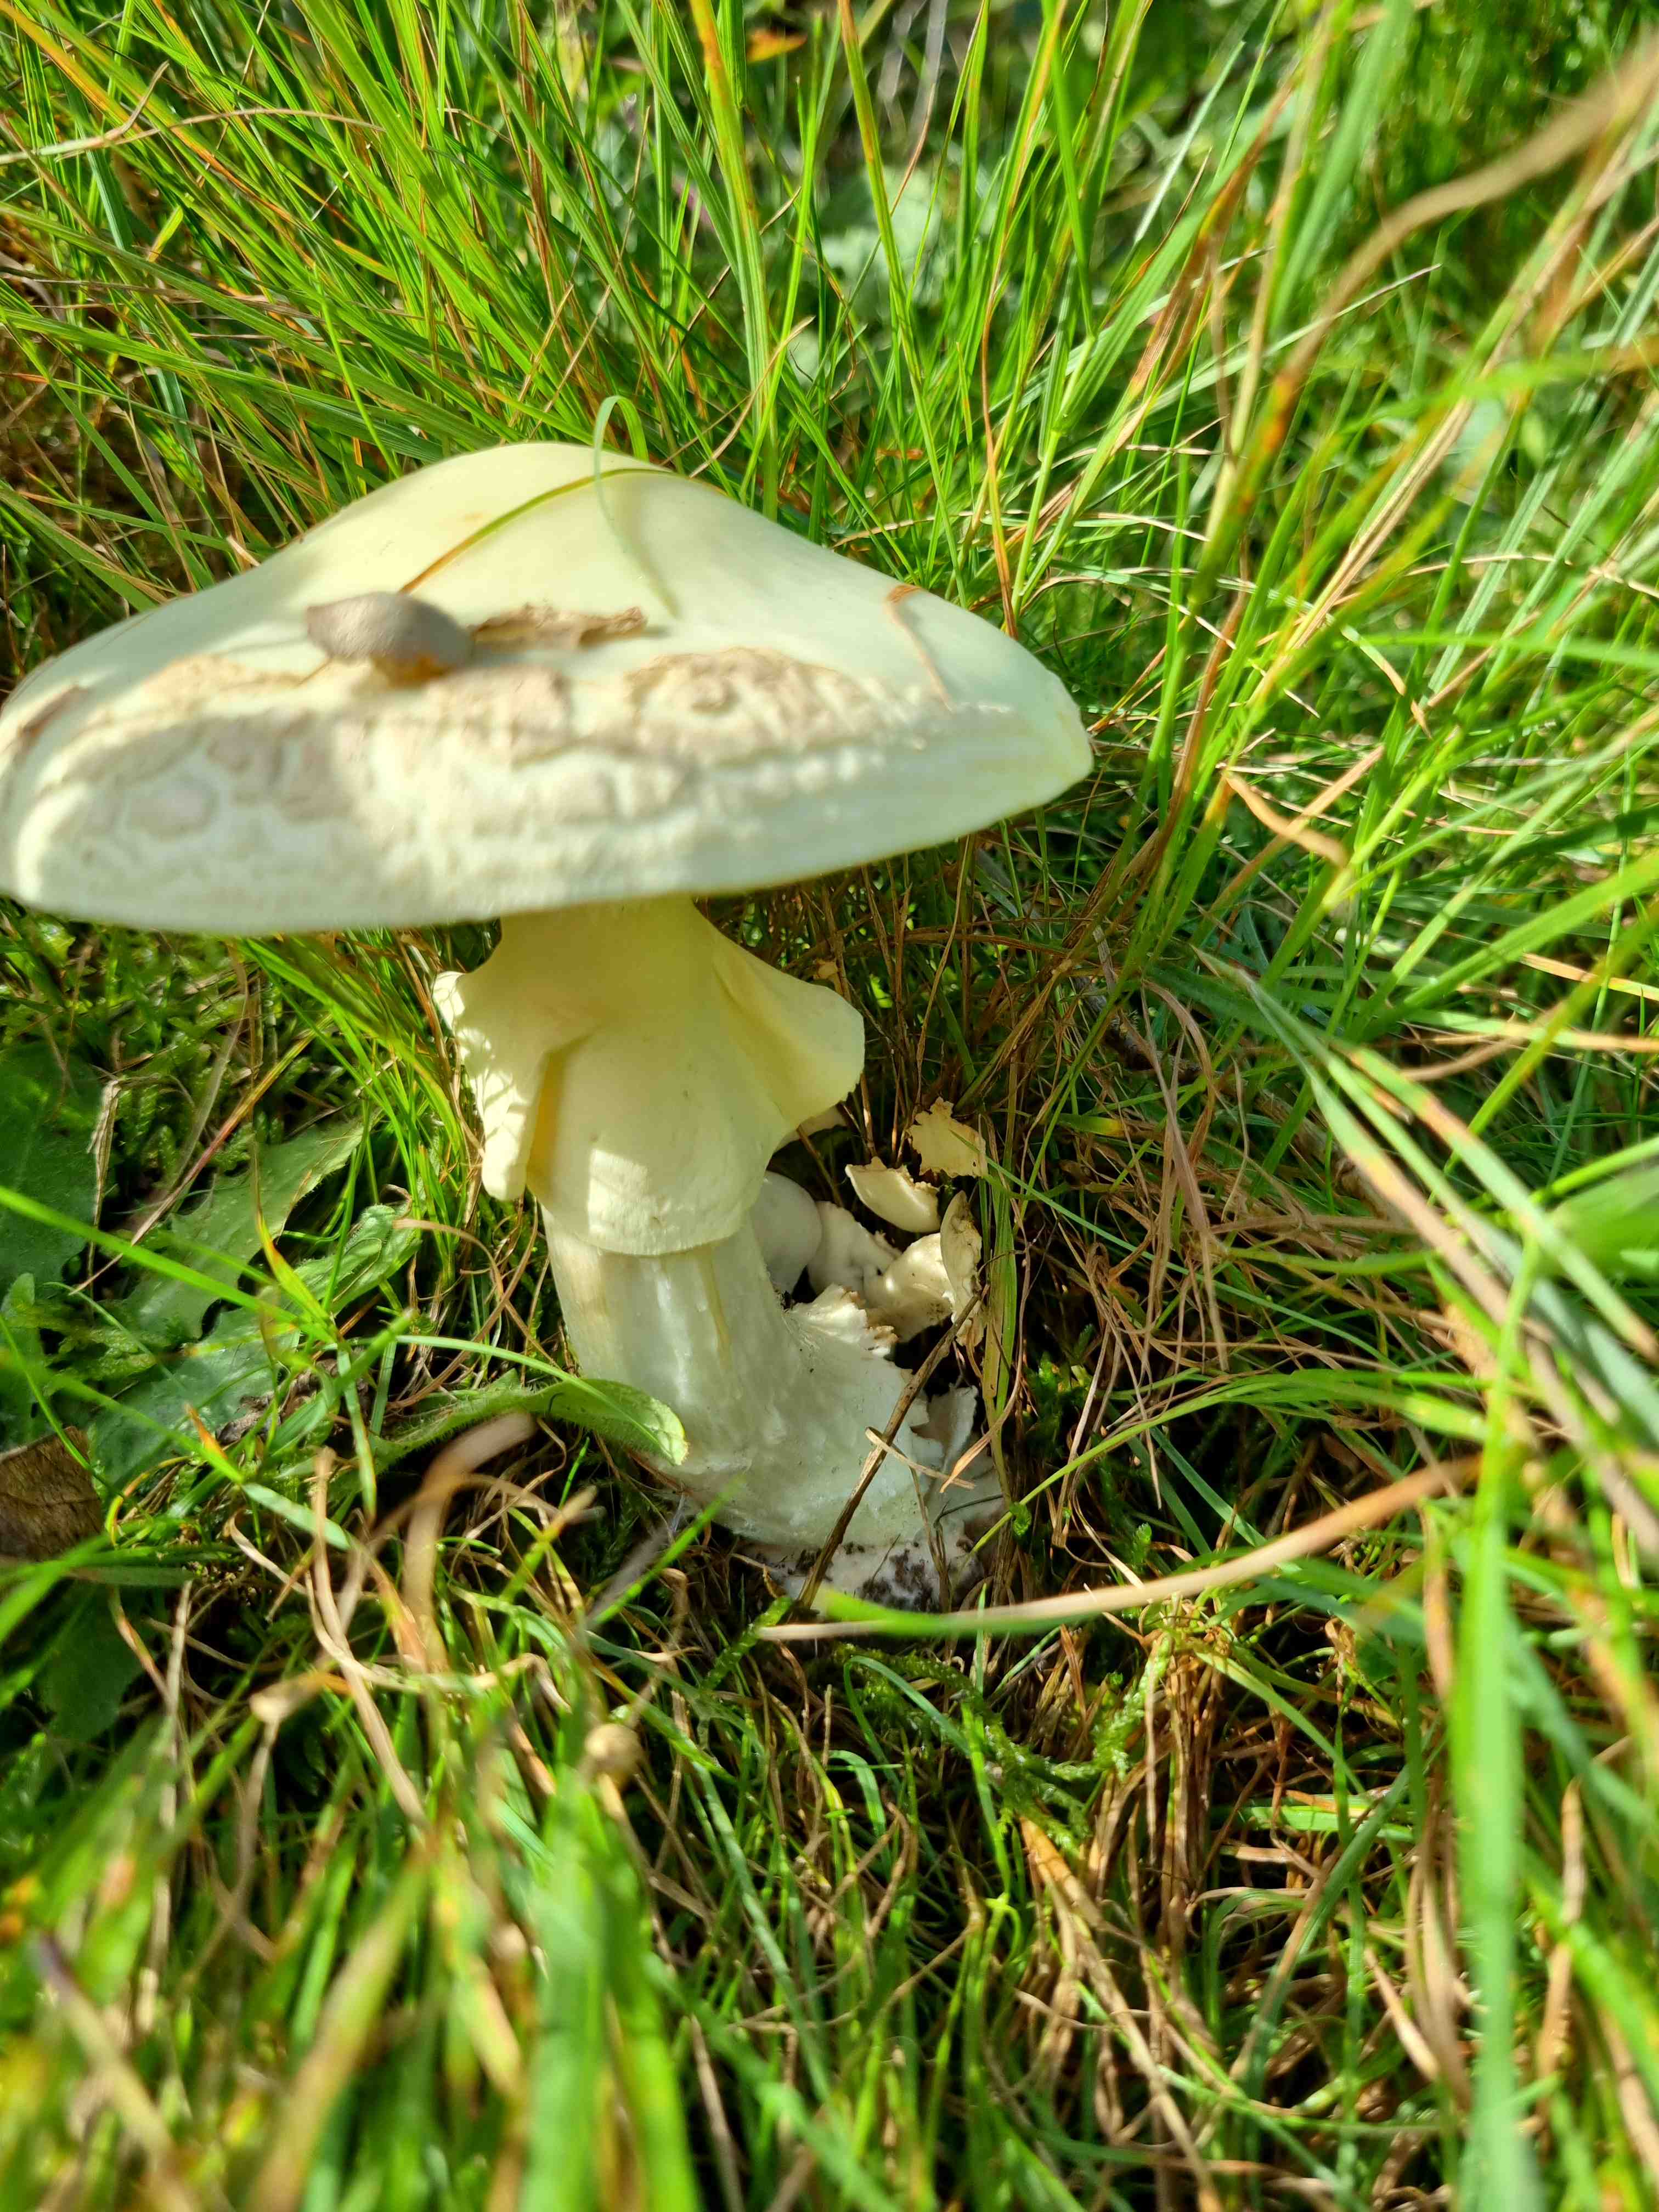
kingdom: Fungi
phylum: Basidiomycota
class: Agaricomycetes
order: Agaricales
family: Amanitaceae
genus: Amanita
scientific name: Amanita citrina
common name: kugleknoldet fluesvamp
